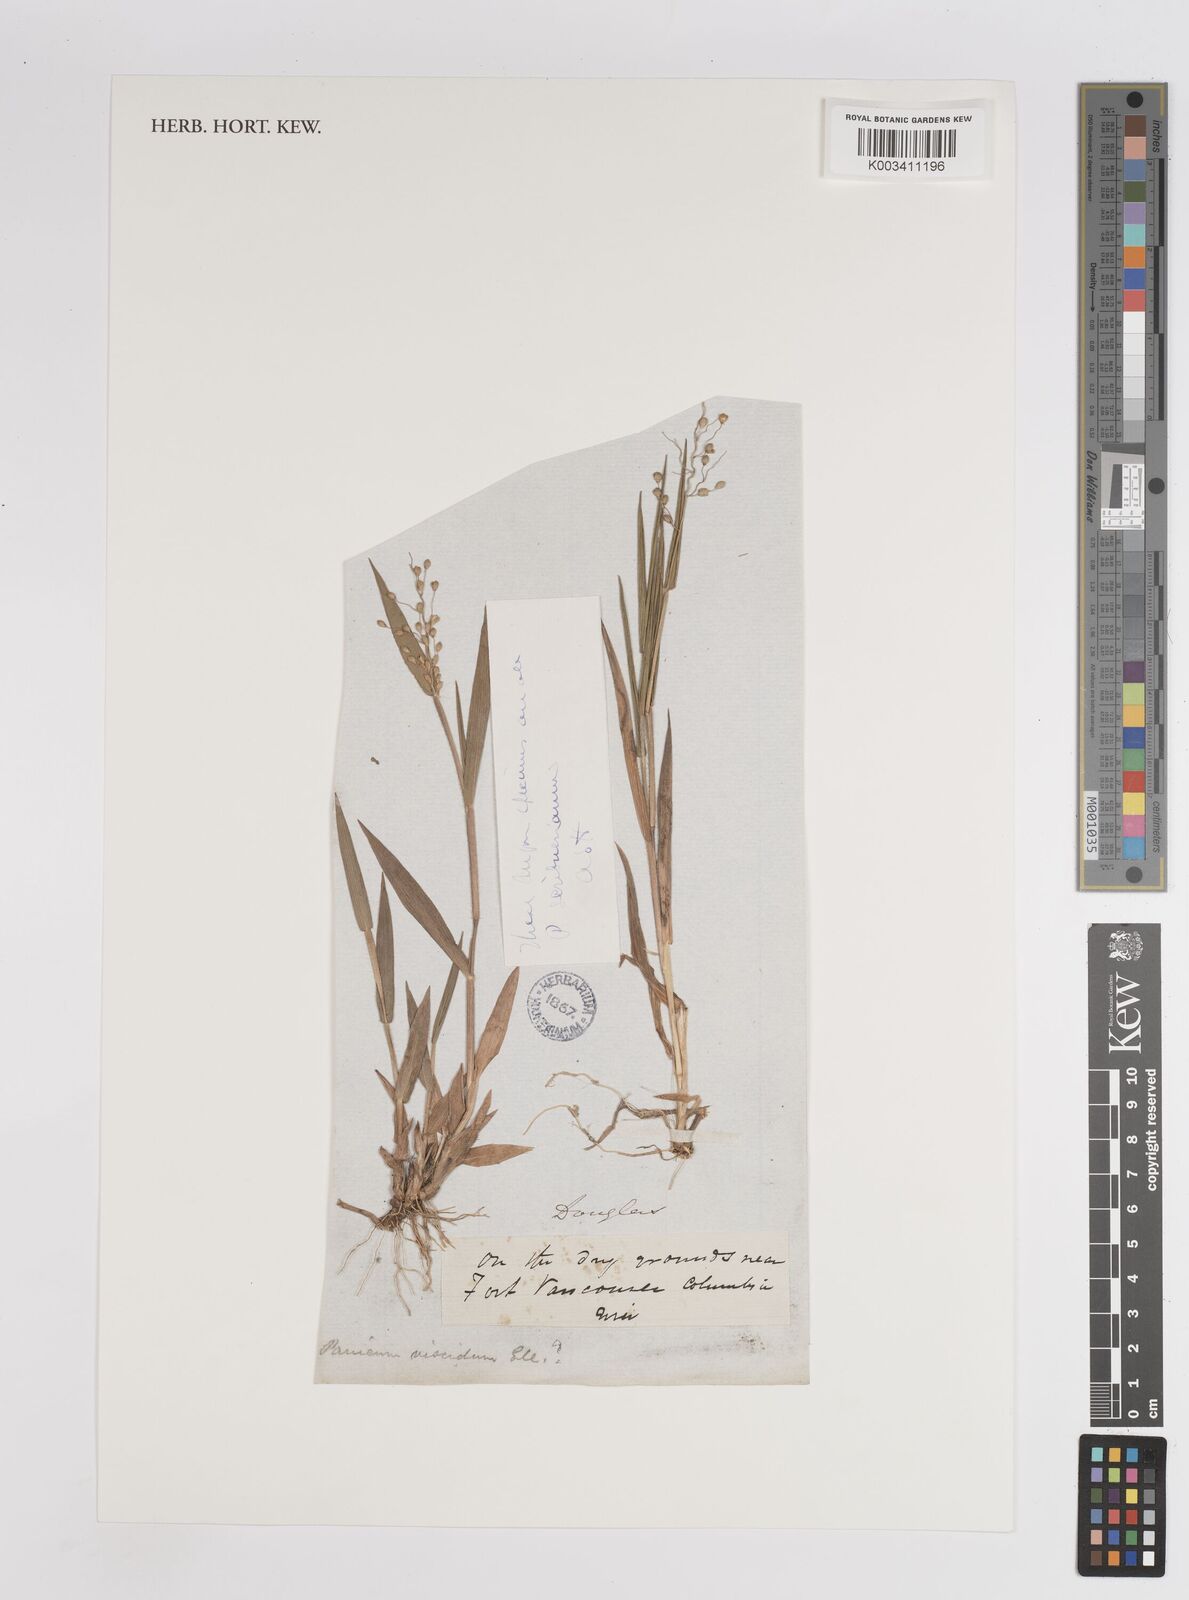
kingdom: Plantae
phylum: Tracheophyta
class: Liliopsida
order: Poales
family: Poaceae
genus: Dichanthelium
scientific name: Dichanthelium oligosanthes
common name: Few-anther obscuregrass
